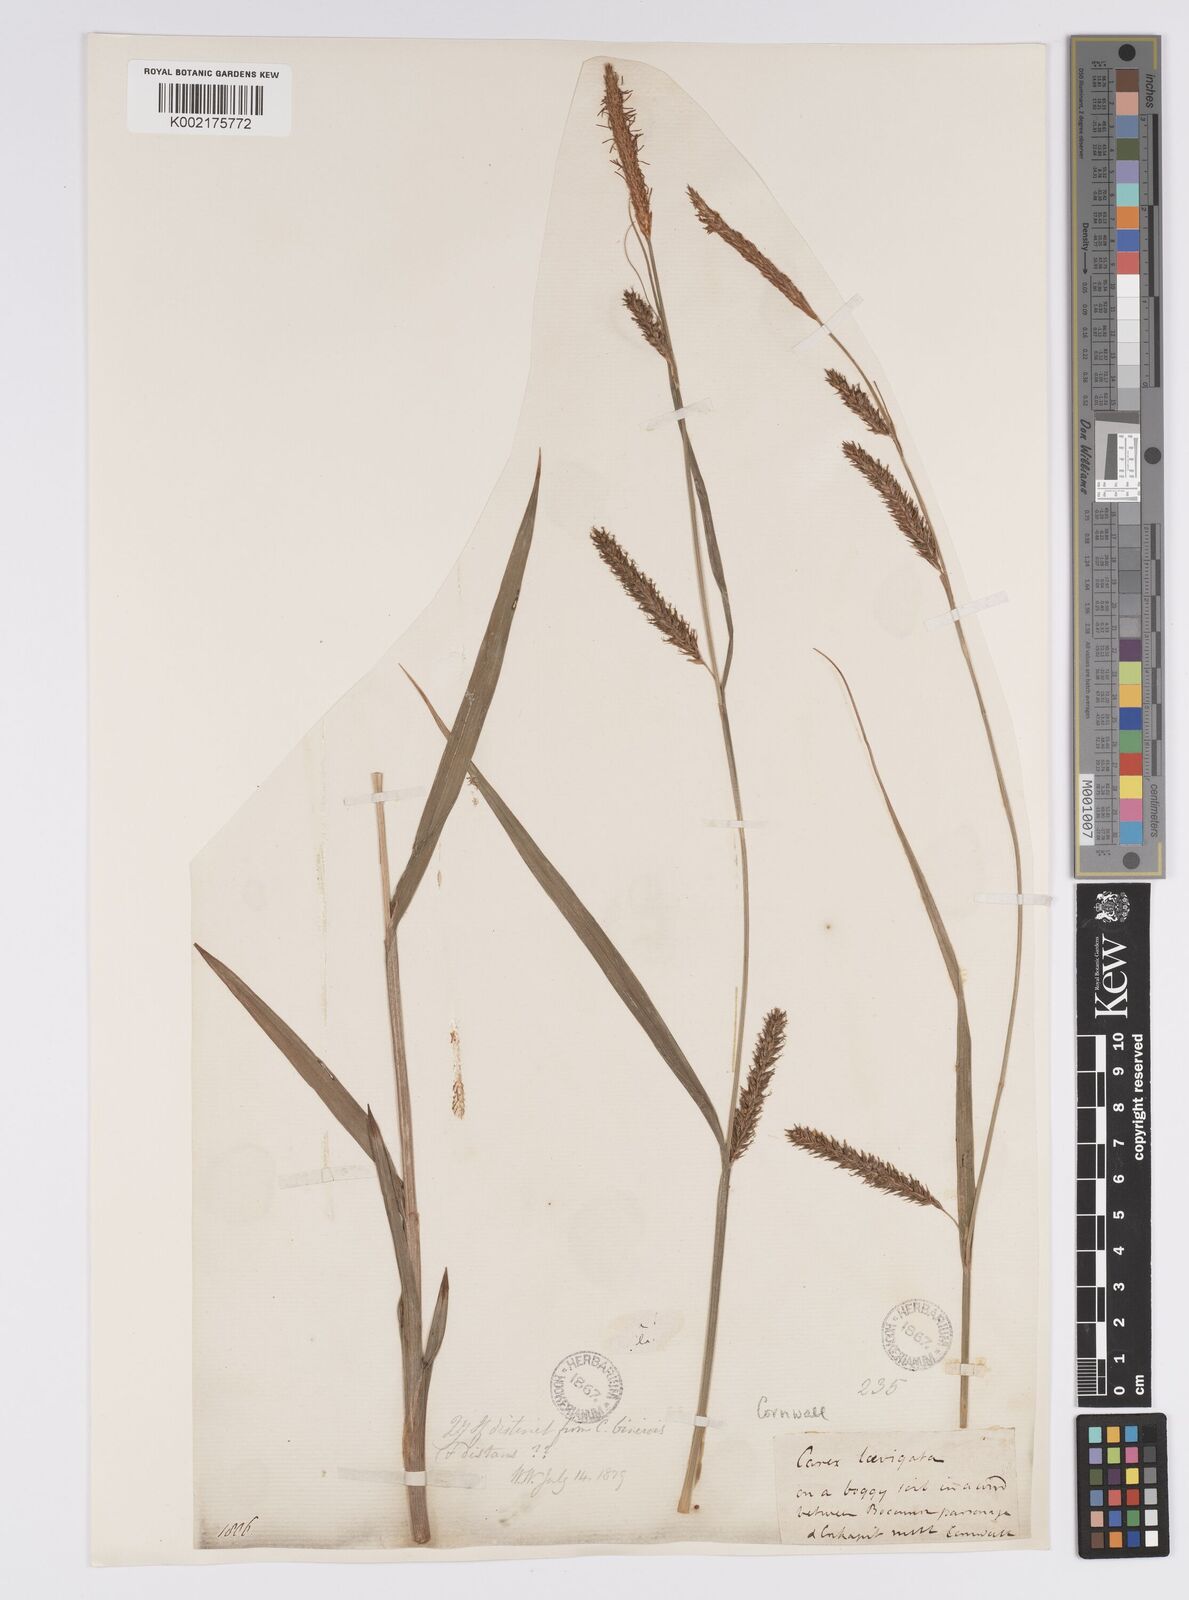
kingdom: Plantae
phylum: Tracheophyta
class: Liliopsida
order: Poales
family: Cyperaceae
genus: Carex
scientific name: Carex laevigata
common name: Smooth-stalked sedge
